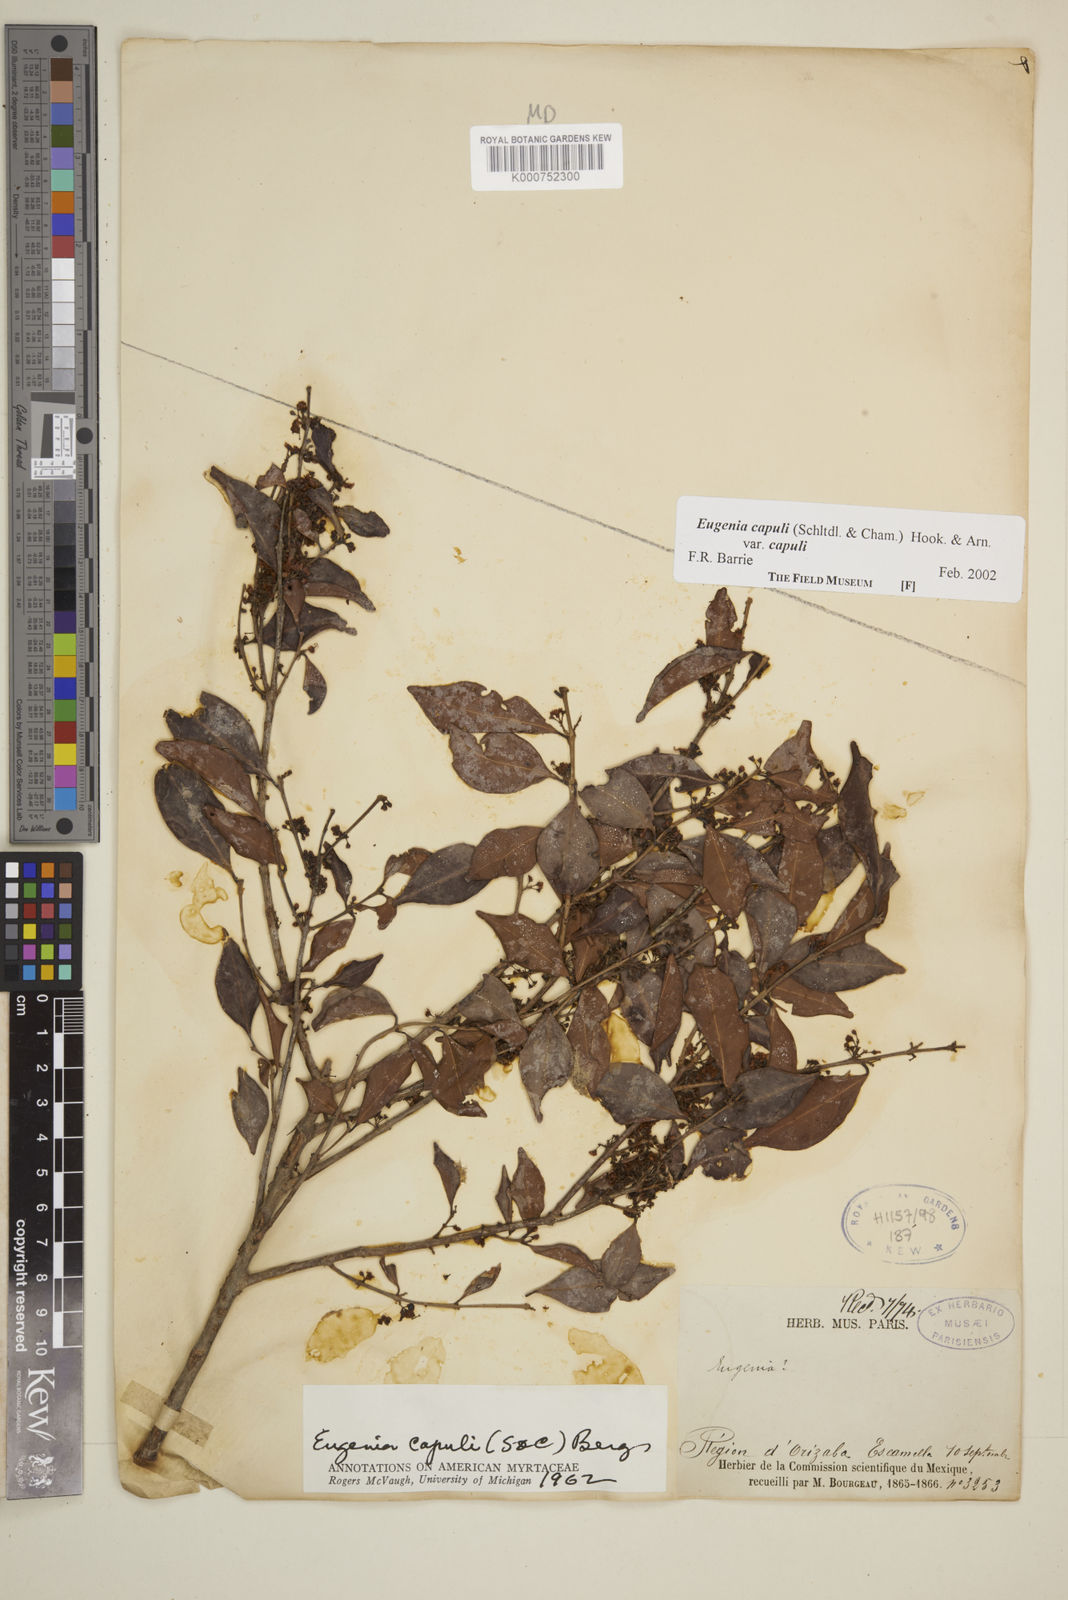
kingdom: Plantae
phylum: Tracheophyta
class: Magnoliopsida
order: Myrtales
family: Myrtaceae
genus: Eugenia
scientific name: Eugenia capuli
